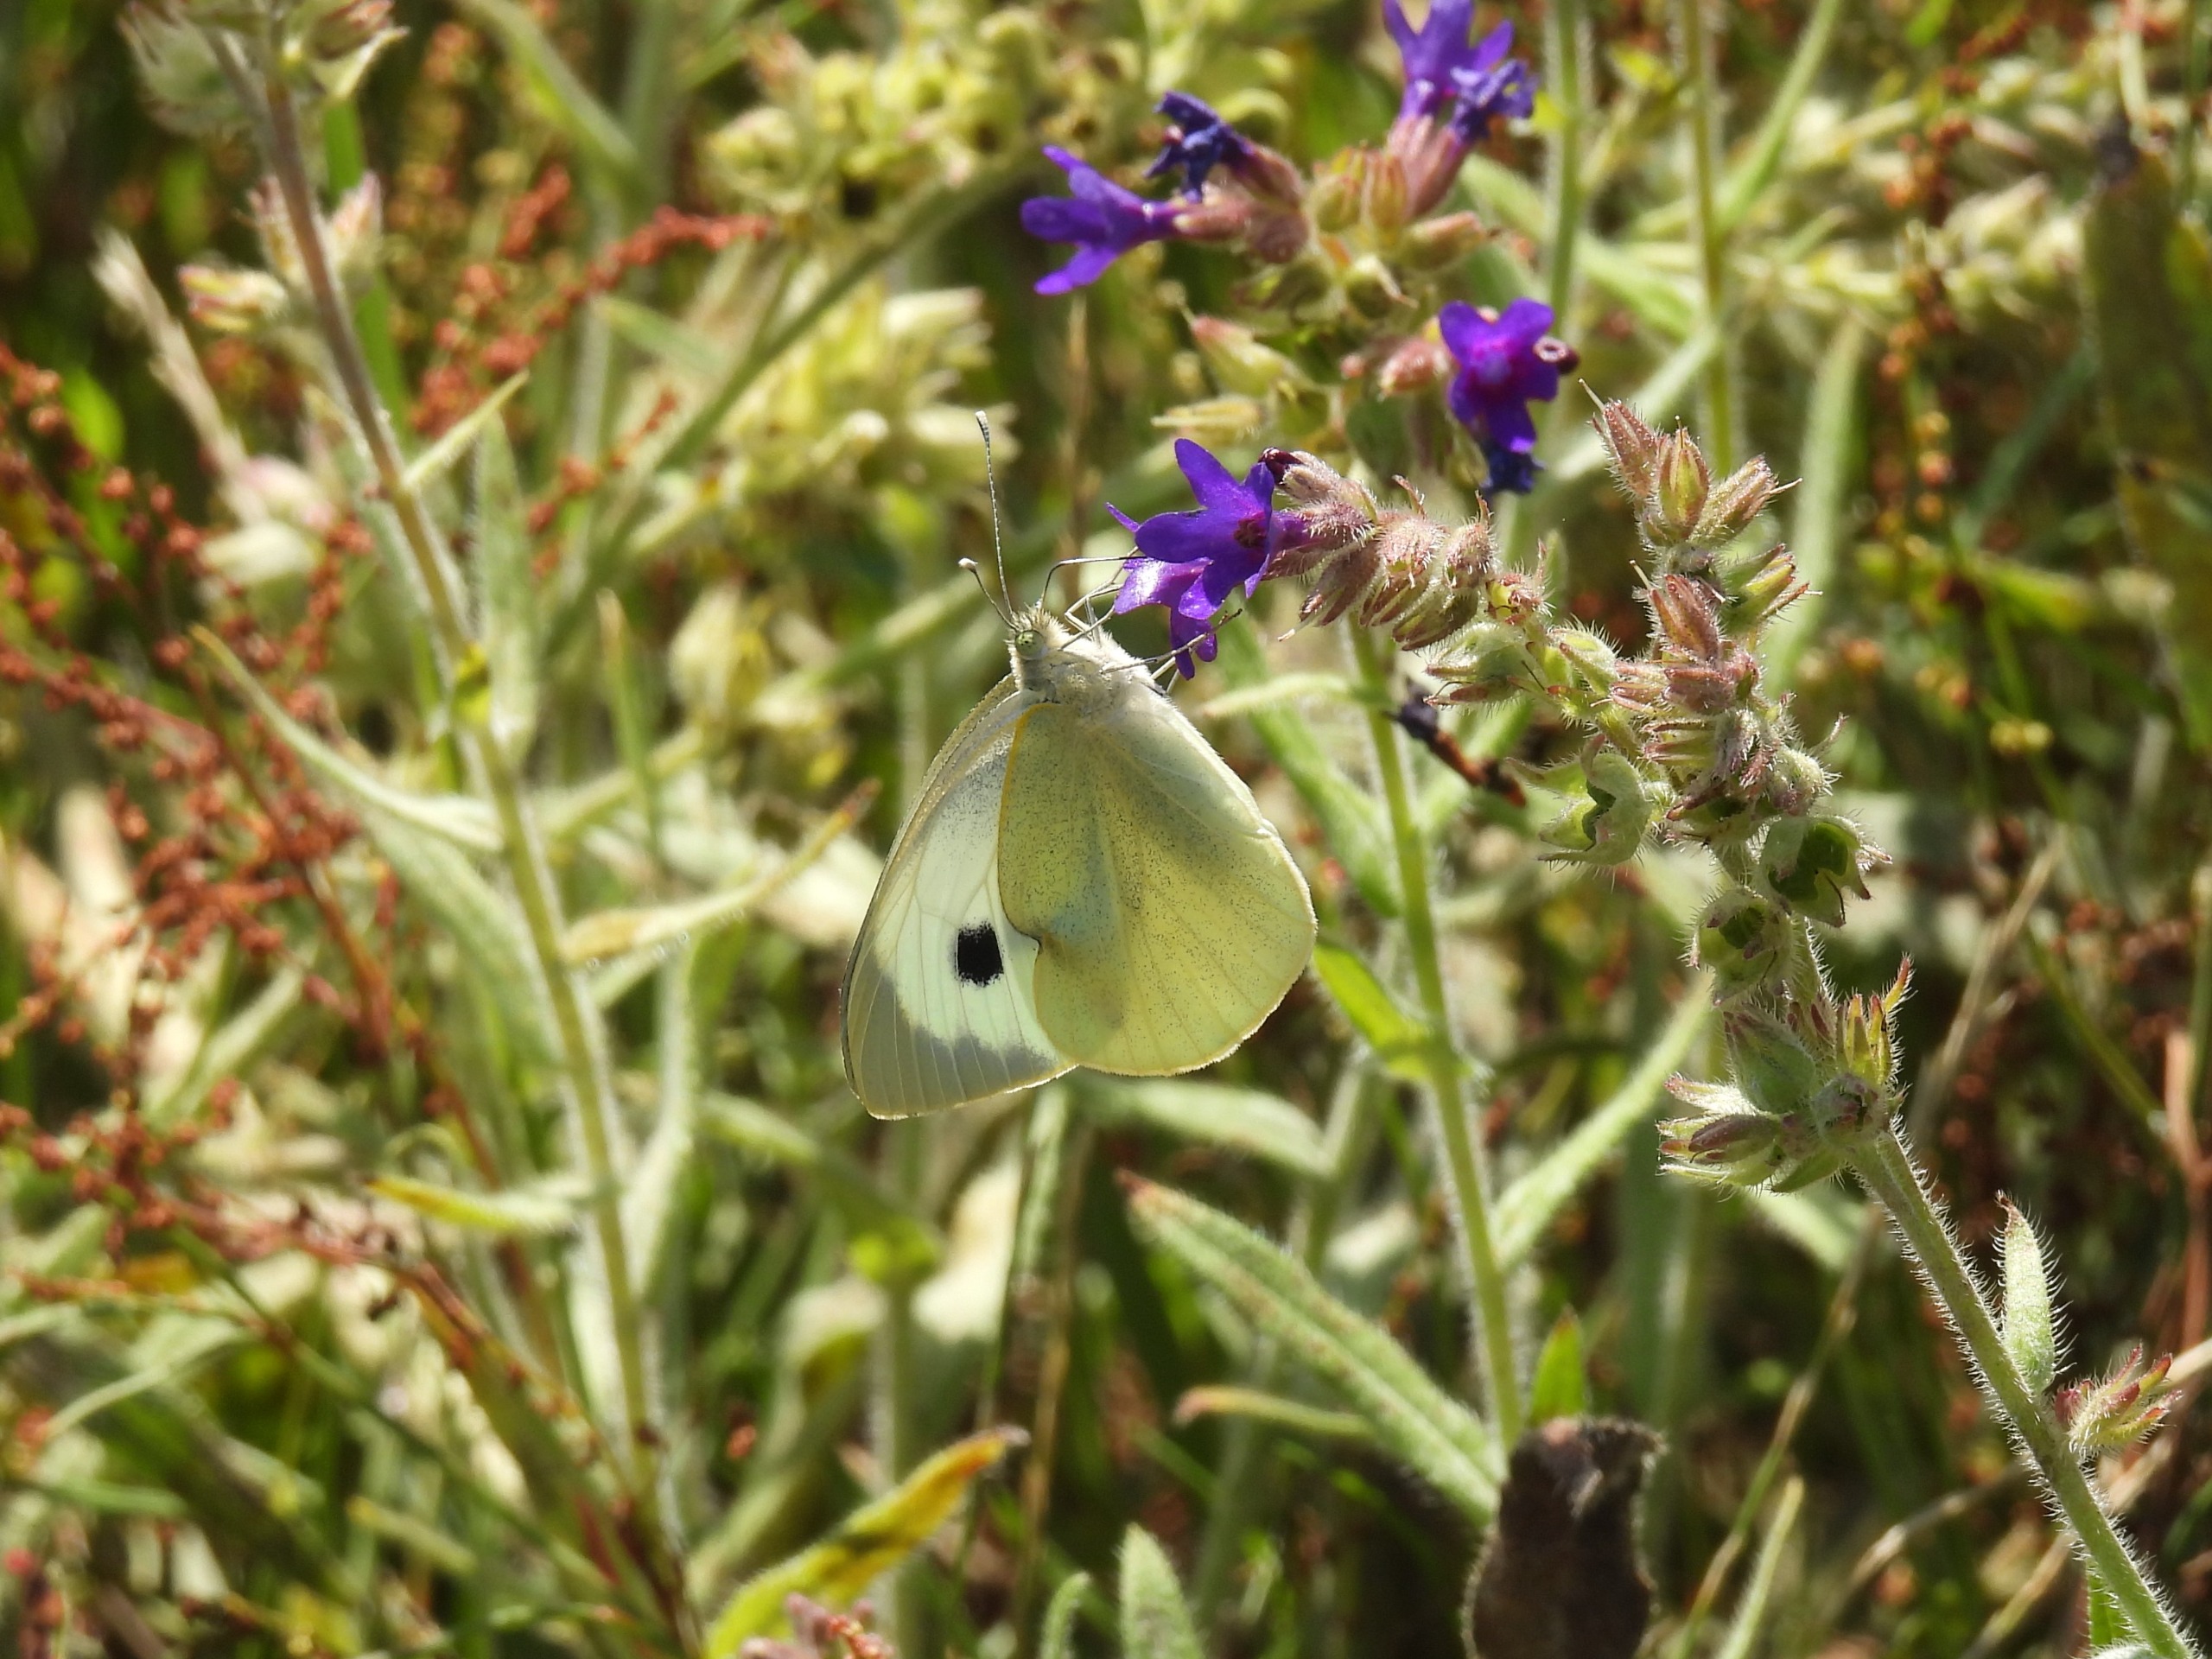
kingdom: Animalia
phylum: Arthropoda
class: Insecta
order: Lepidoptera
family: Pieridae
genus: Pieris
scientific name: Pieris brassicae
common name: Stor kålsommerfugl
